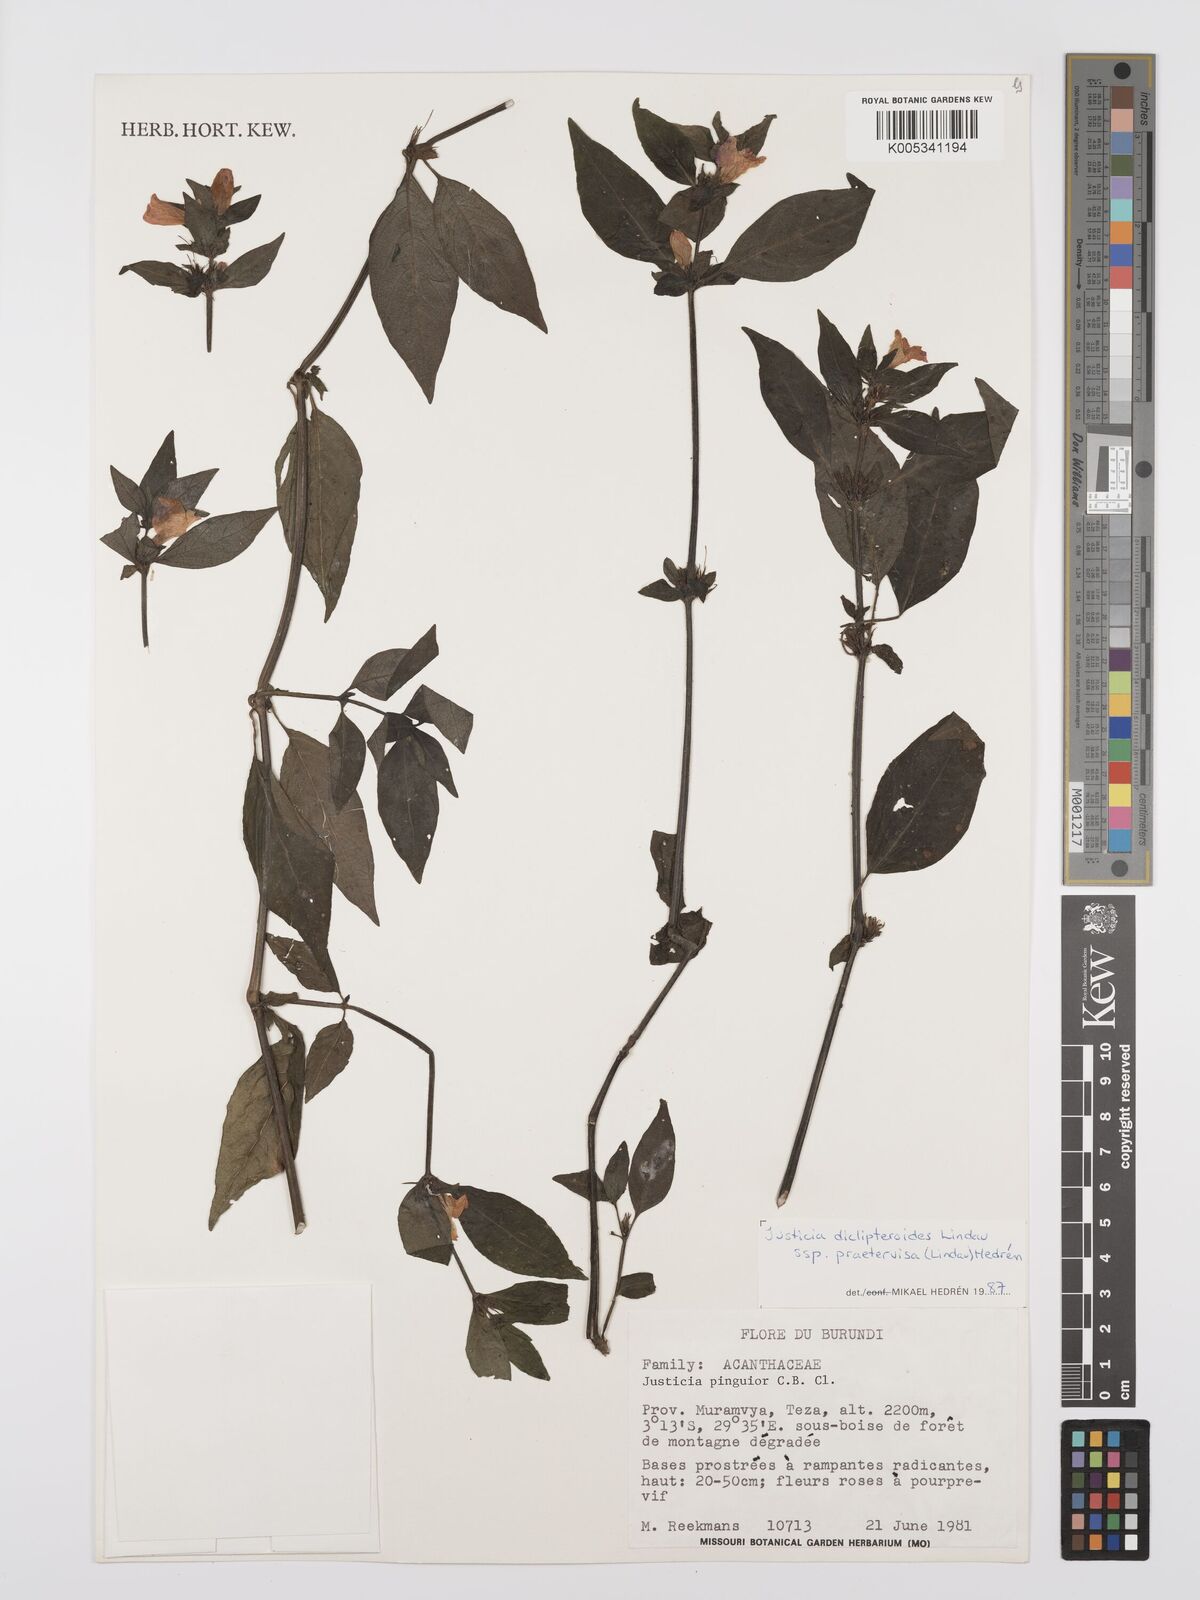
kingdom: Plantae
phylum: Tracheophyta
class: Magnoliopsida
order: Lamiales
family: Acanthaceae
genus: Justicia
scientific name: Justicia diclipteroides
